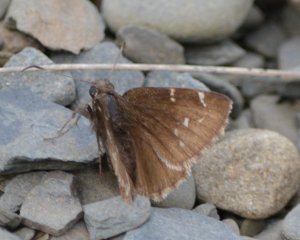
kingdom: Animalia
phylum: Arthropoda
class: Insecta
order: Lepidoptera
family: Hesperiidae
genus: Autochton
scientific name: Autochton
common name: Northern Cloudywing
